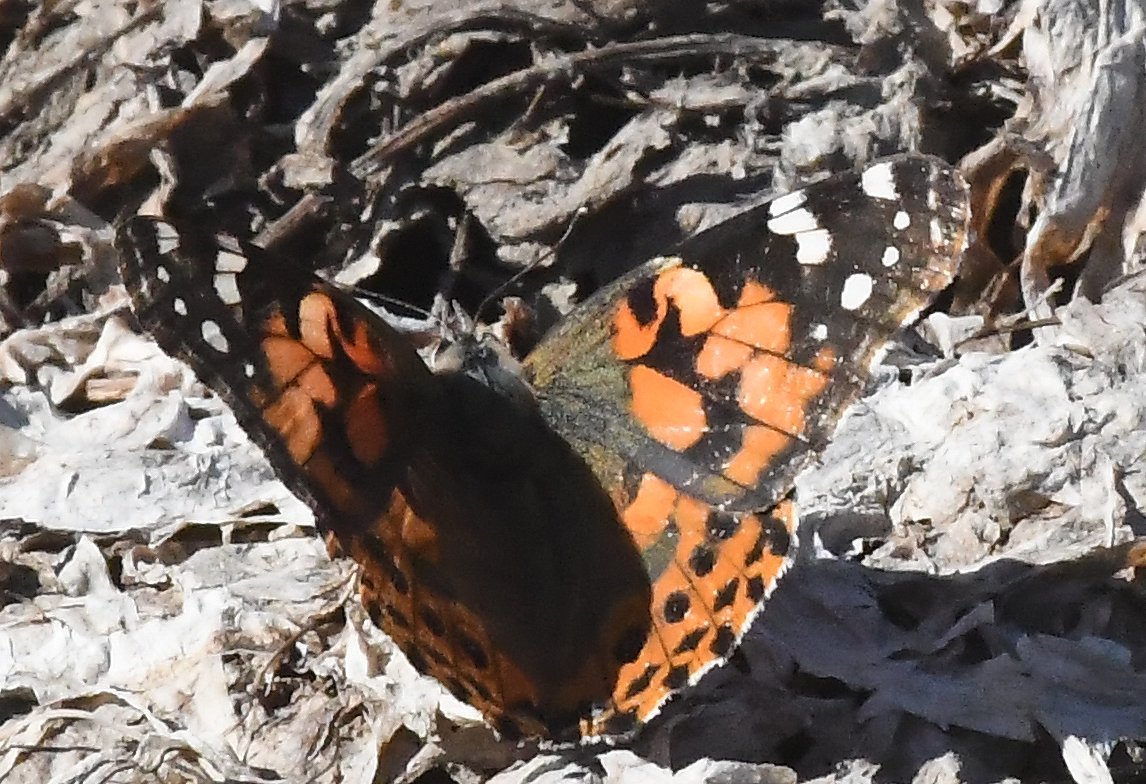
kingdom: Animalia
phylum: Arthropoda
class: Insecta
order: Lepidoptera
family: Nymphalidae
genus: Vanessa
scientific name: Vanessa cardui
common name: Painted Lady
